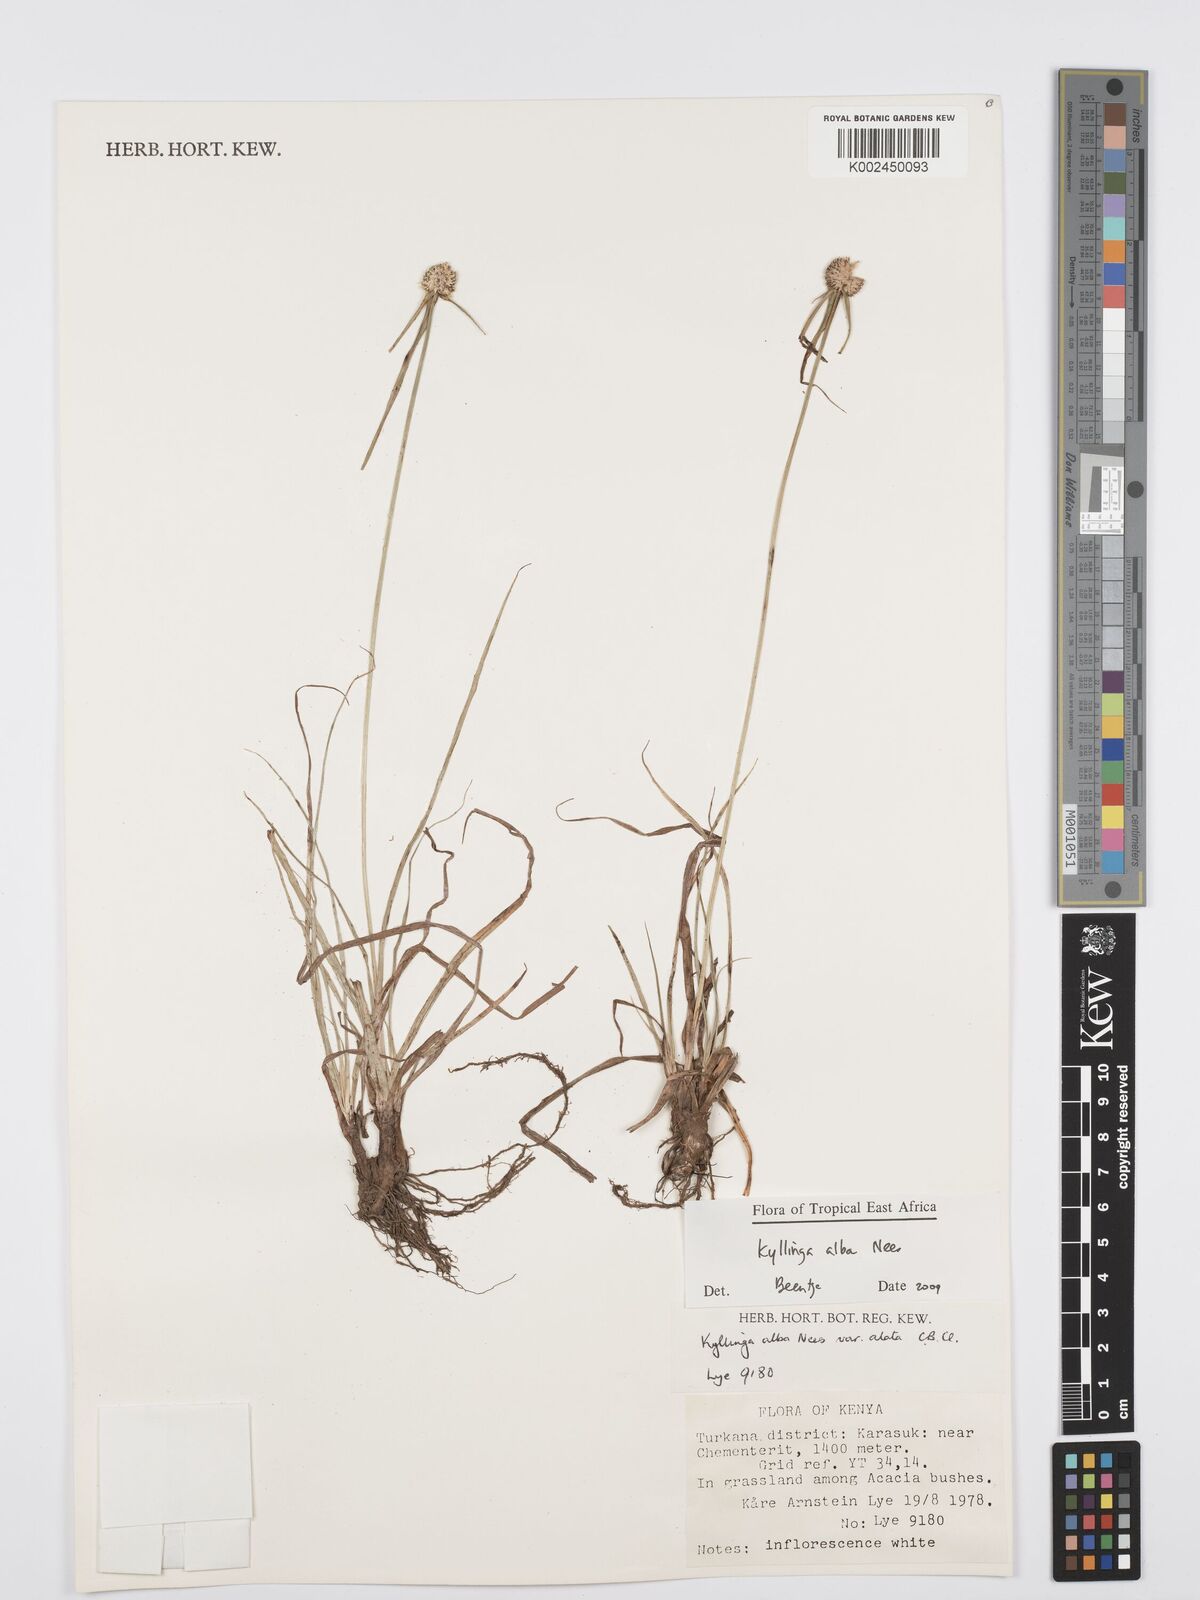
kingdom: Plantae
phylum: Tracheophyta
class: Liliopsida
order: Poales
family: Cyperaceae
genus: Cyperus
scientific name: Cyperus
